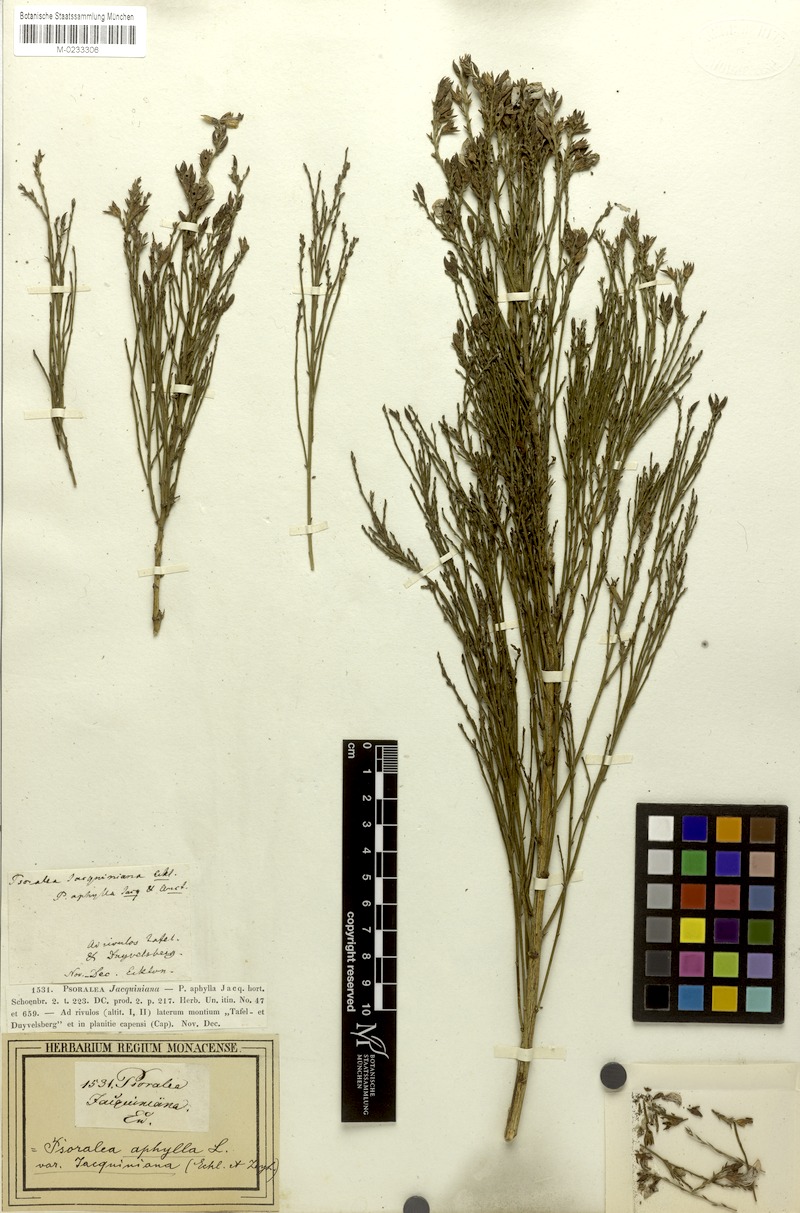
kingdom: Plantae
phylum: Tracheophyta
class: Magnoliopsida
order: Fabales
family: Fabaceae
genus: Psoralea
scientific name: Psoralea aphylla
